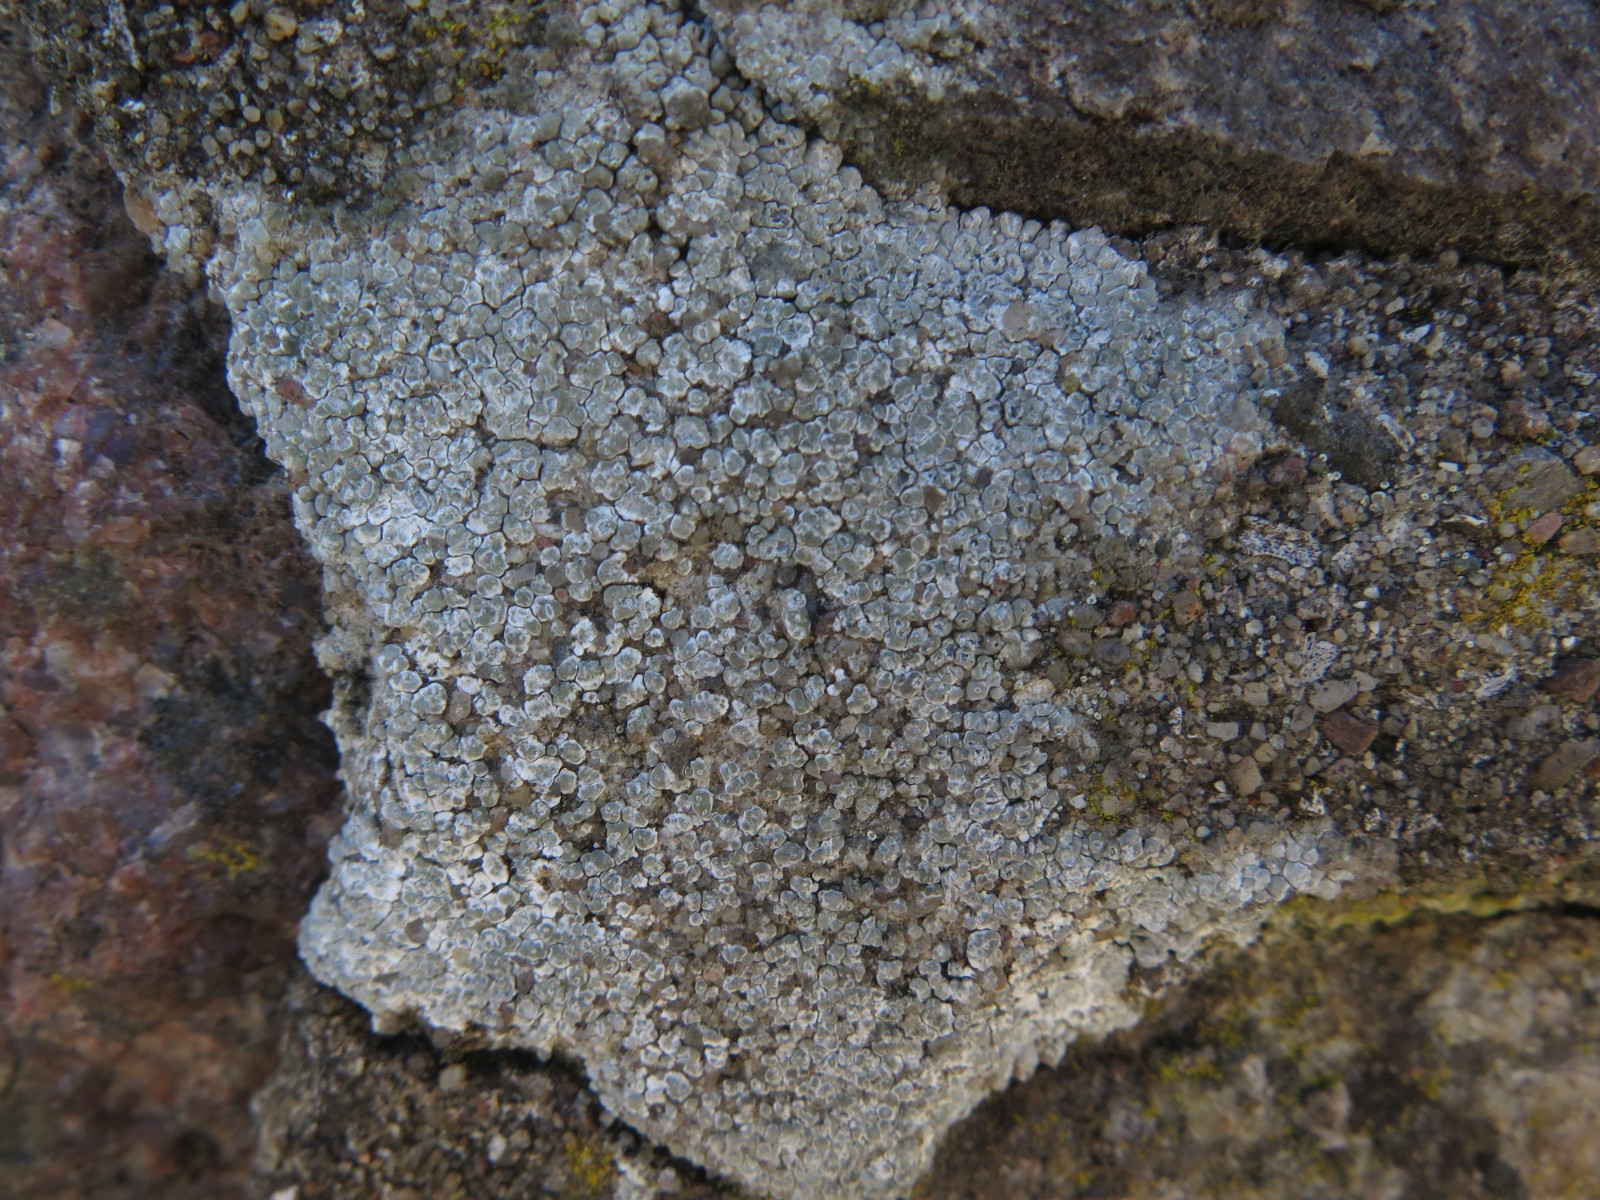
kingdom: Fungi
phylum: Ascomycota
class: Lecanoromycetes
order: Pertusariales
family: Megasporaceae
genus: Circinaria
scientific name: Circinaria contorta
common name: indviklet hulskivelav
